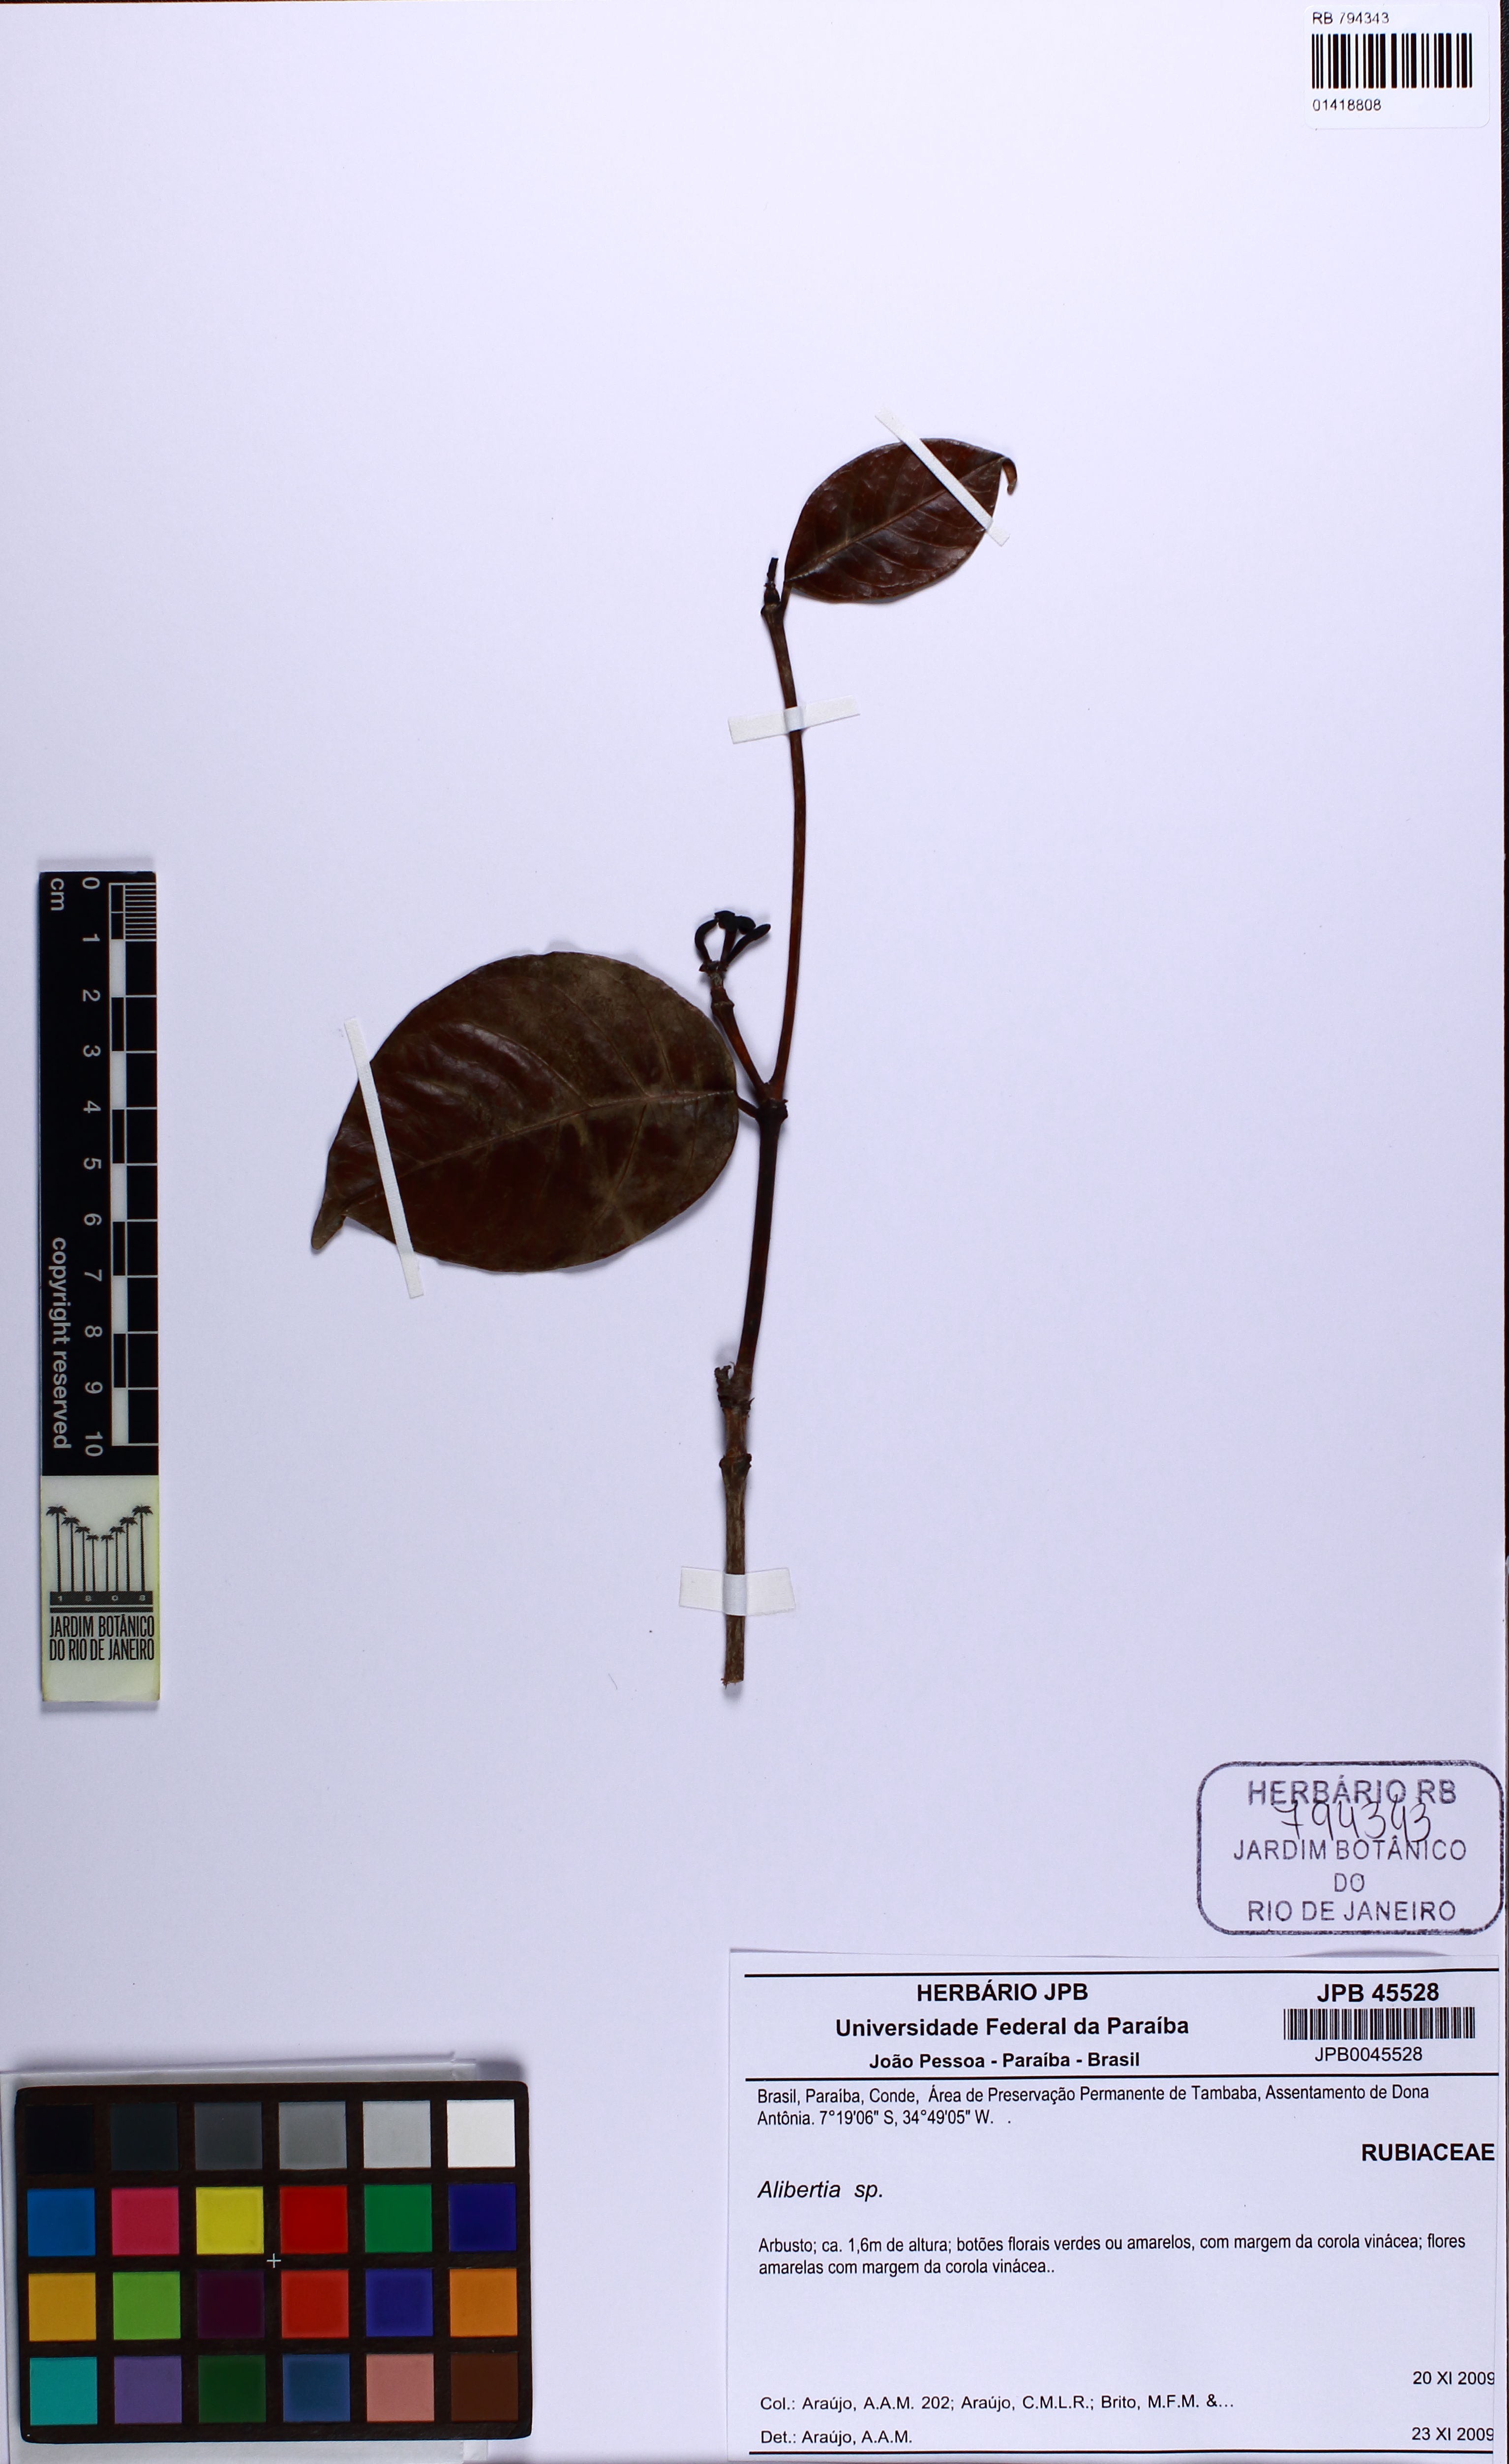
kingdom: Plantae
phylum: Tracheophyta
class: Magnoliopsida
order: Gentianales
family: Rubiaceae
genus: Alibertia
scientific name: Alibertia
